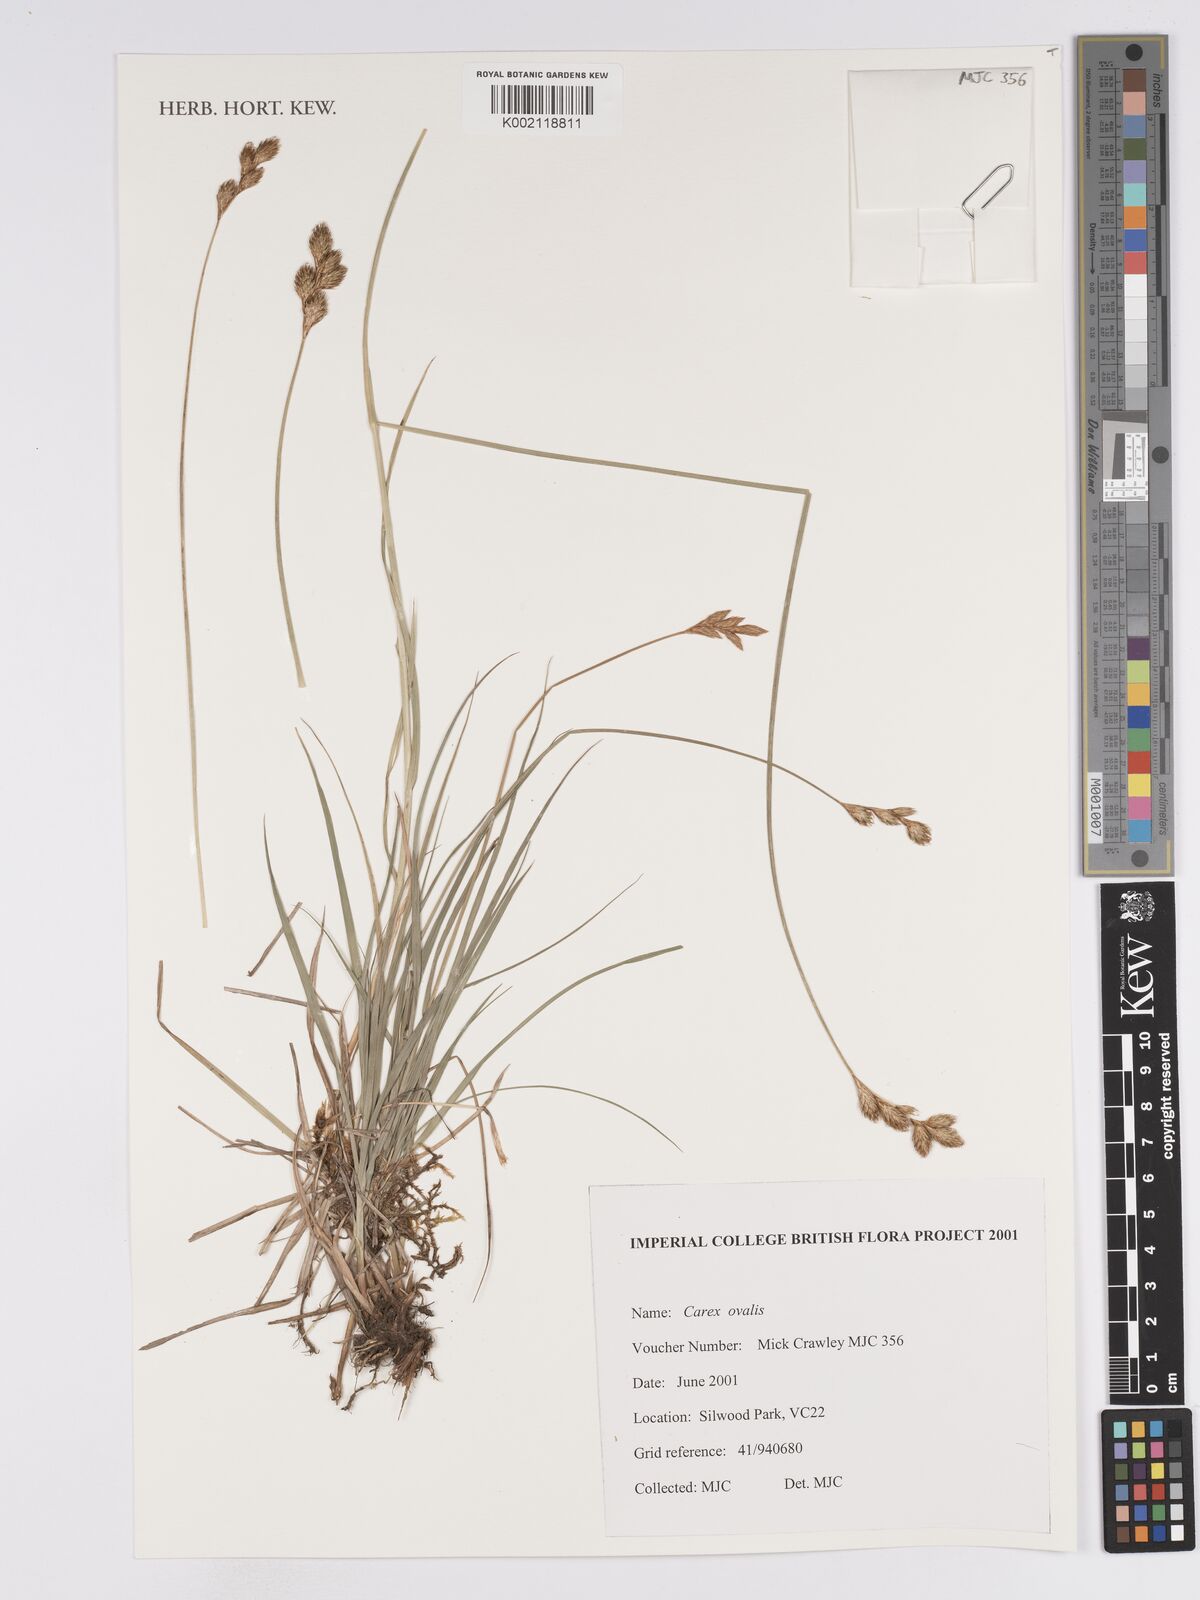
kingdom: Plantae
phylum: Tracheophyta
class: Liliopsida
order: Poales
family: Cyperaceae
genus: Carex
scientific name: Carex leporina
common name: Oval sedge
